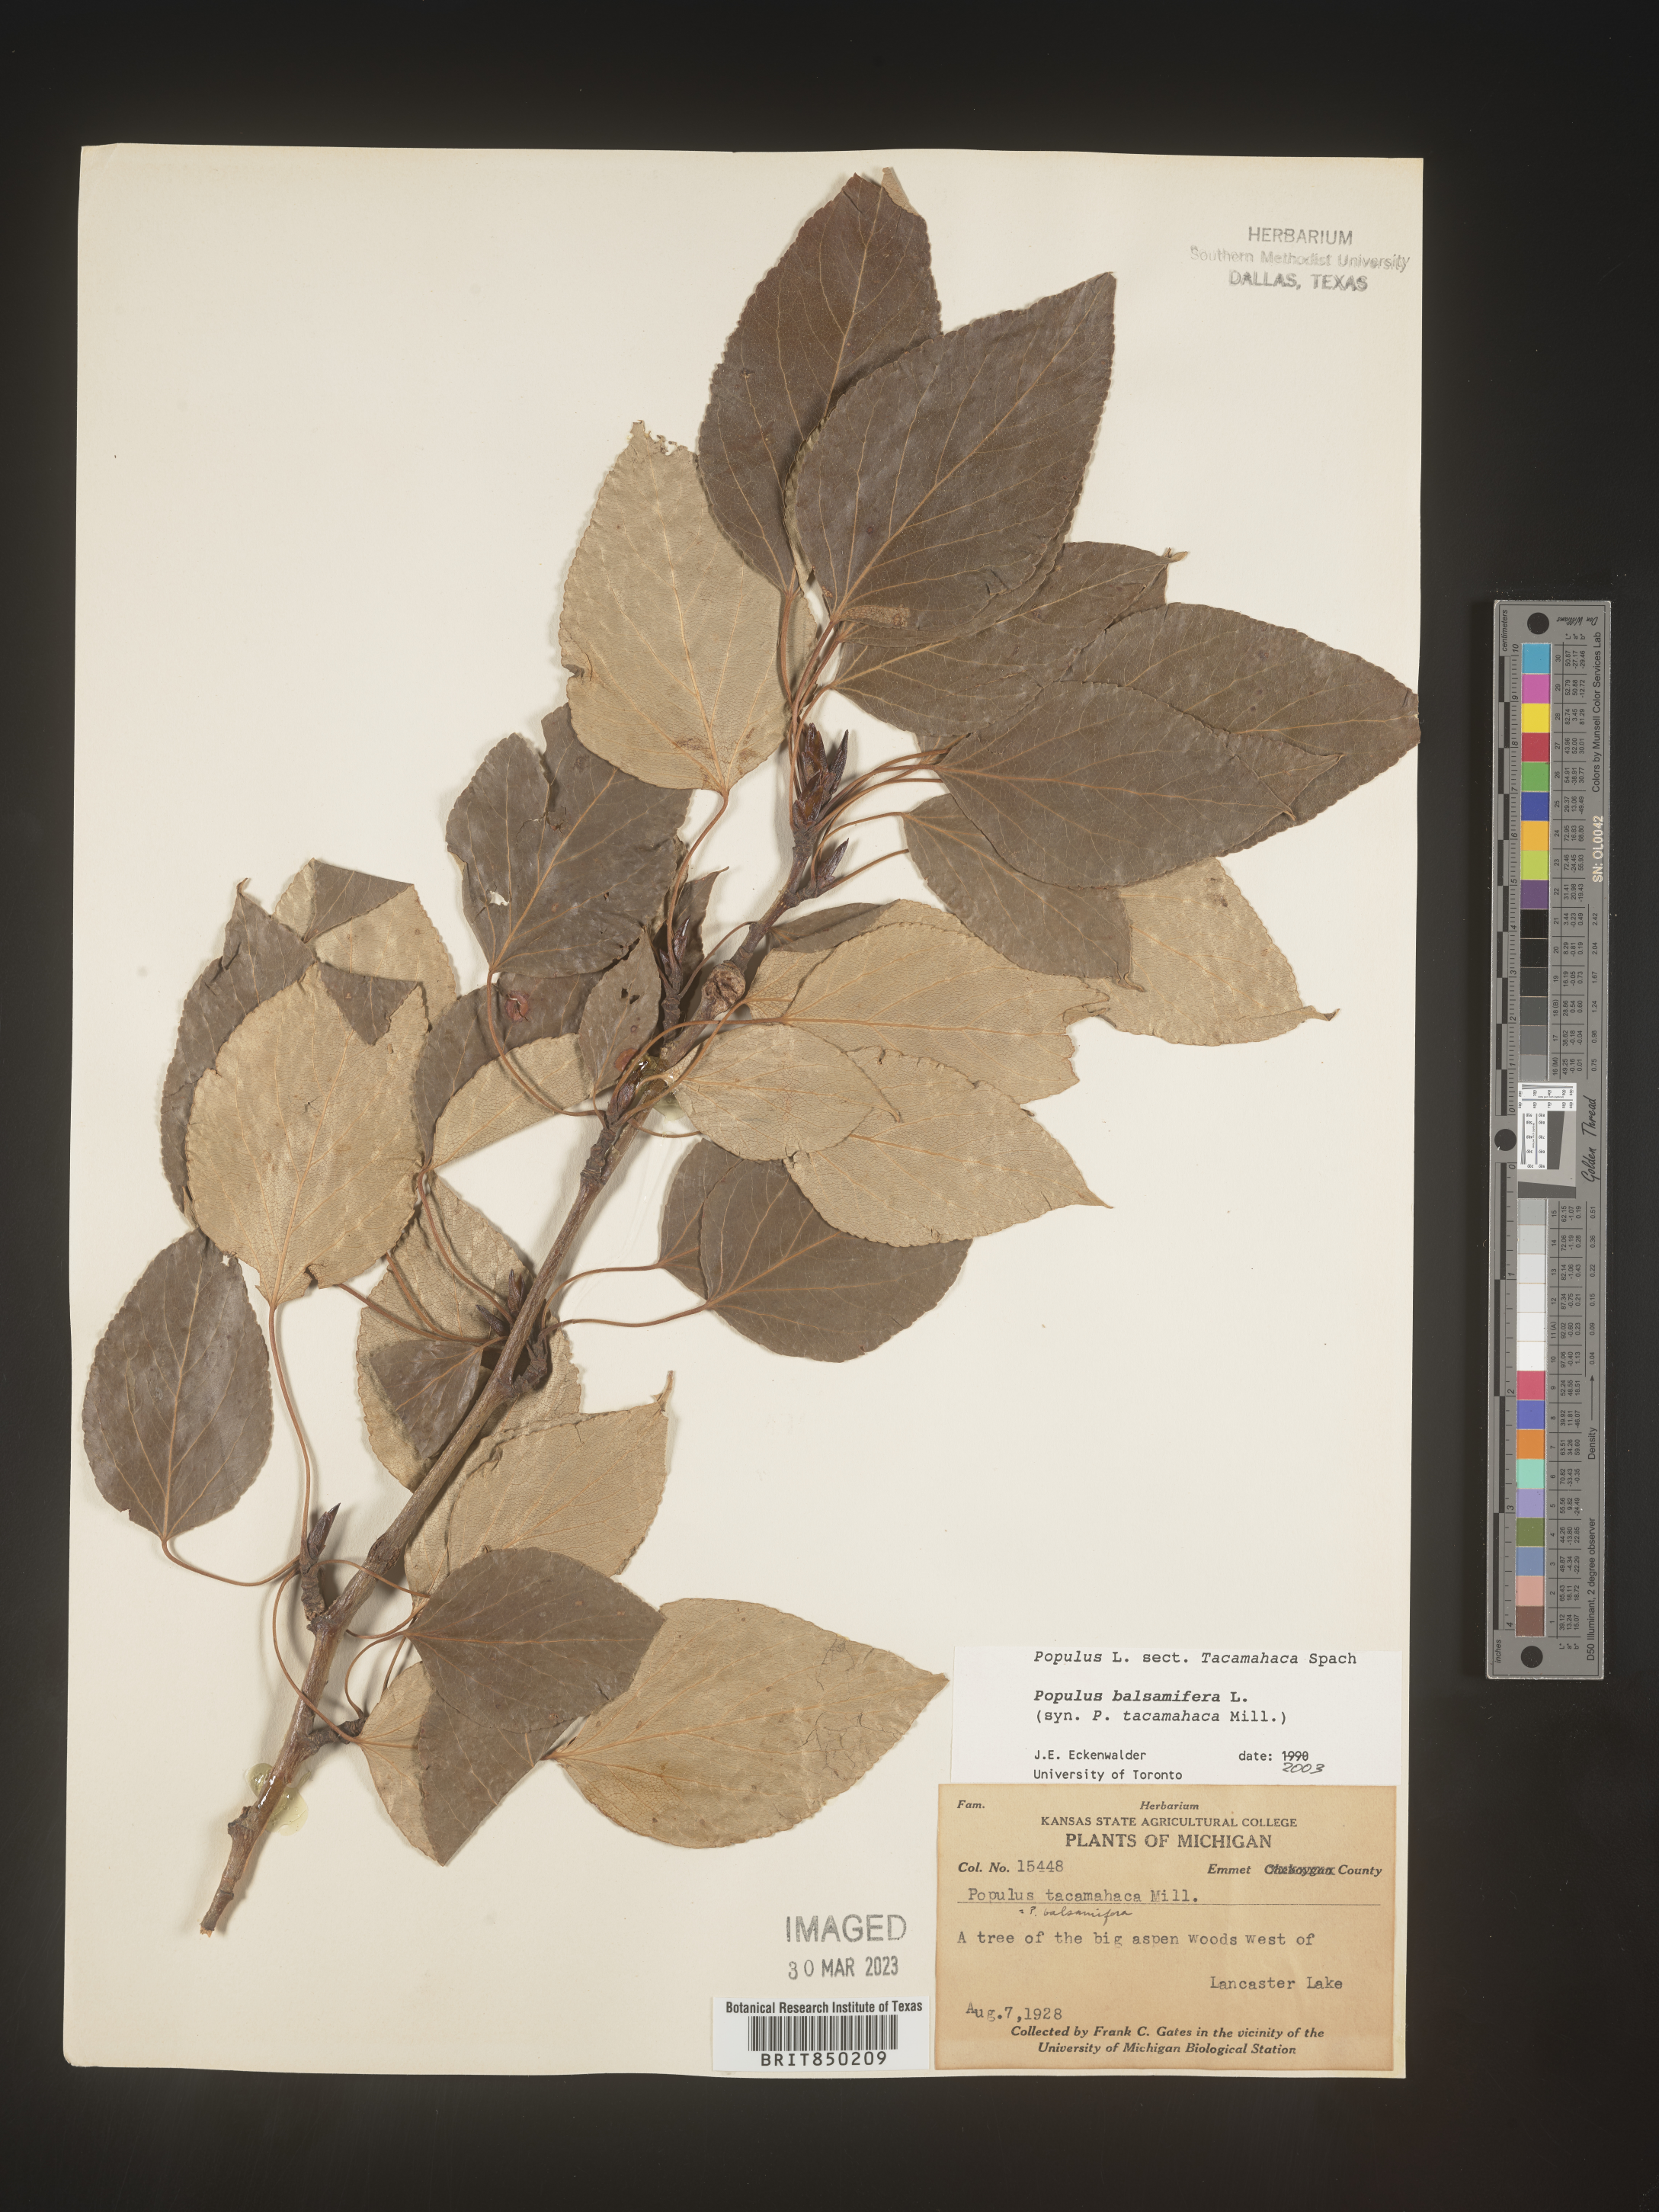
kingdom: Plantae
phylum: Tracheophyta
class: Magnoliopsida
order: Malpighiales
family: Salicaceae
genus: Populus
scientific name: Populus balsamifera
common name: Balsam poplar
